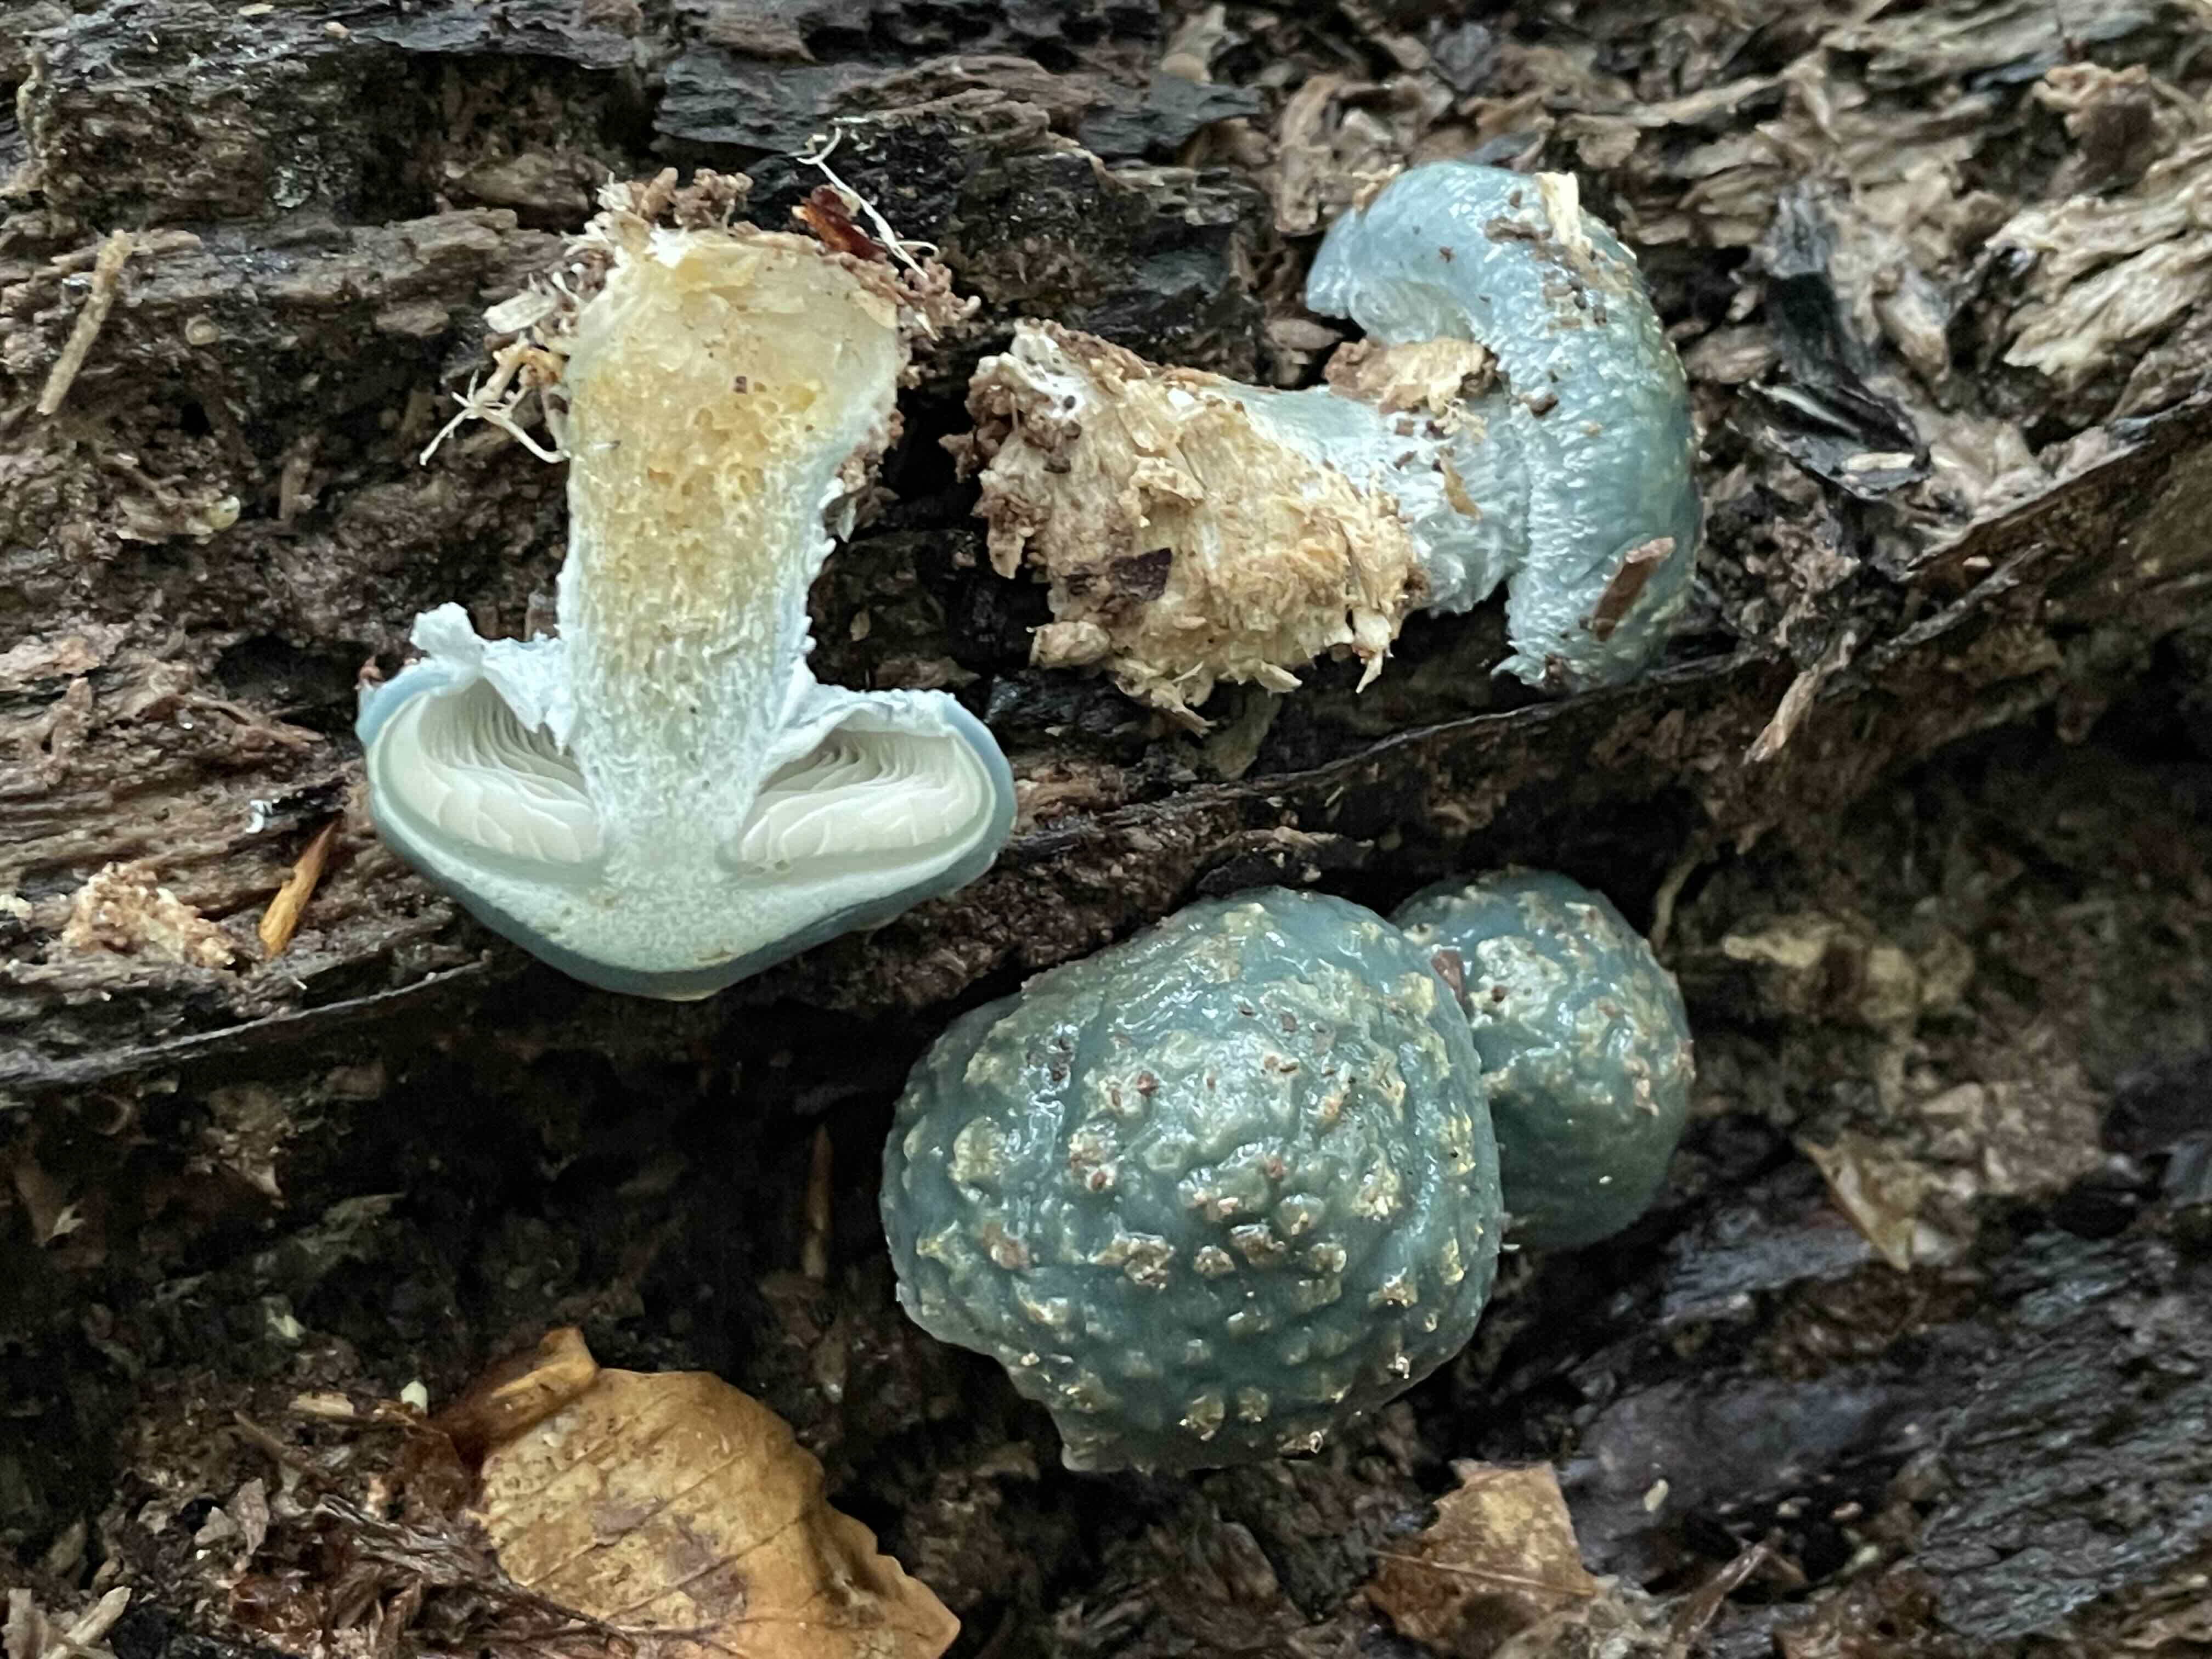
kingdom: Fungi
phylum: Basidiomycota
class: Agaricomycetes
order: Agaricales
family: Strophariaceae
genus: Stropharia
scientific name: Stropharia aeruginosa
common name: spanskgrøn bredblad
